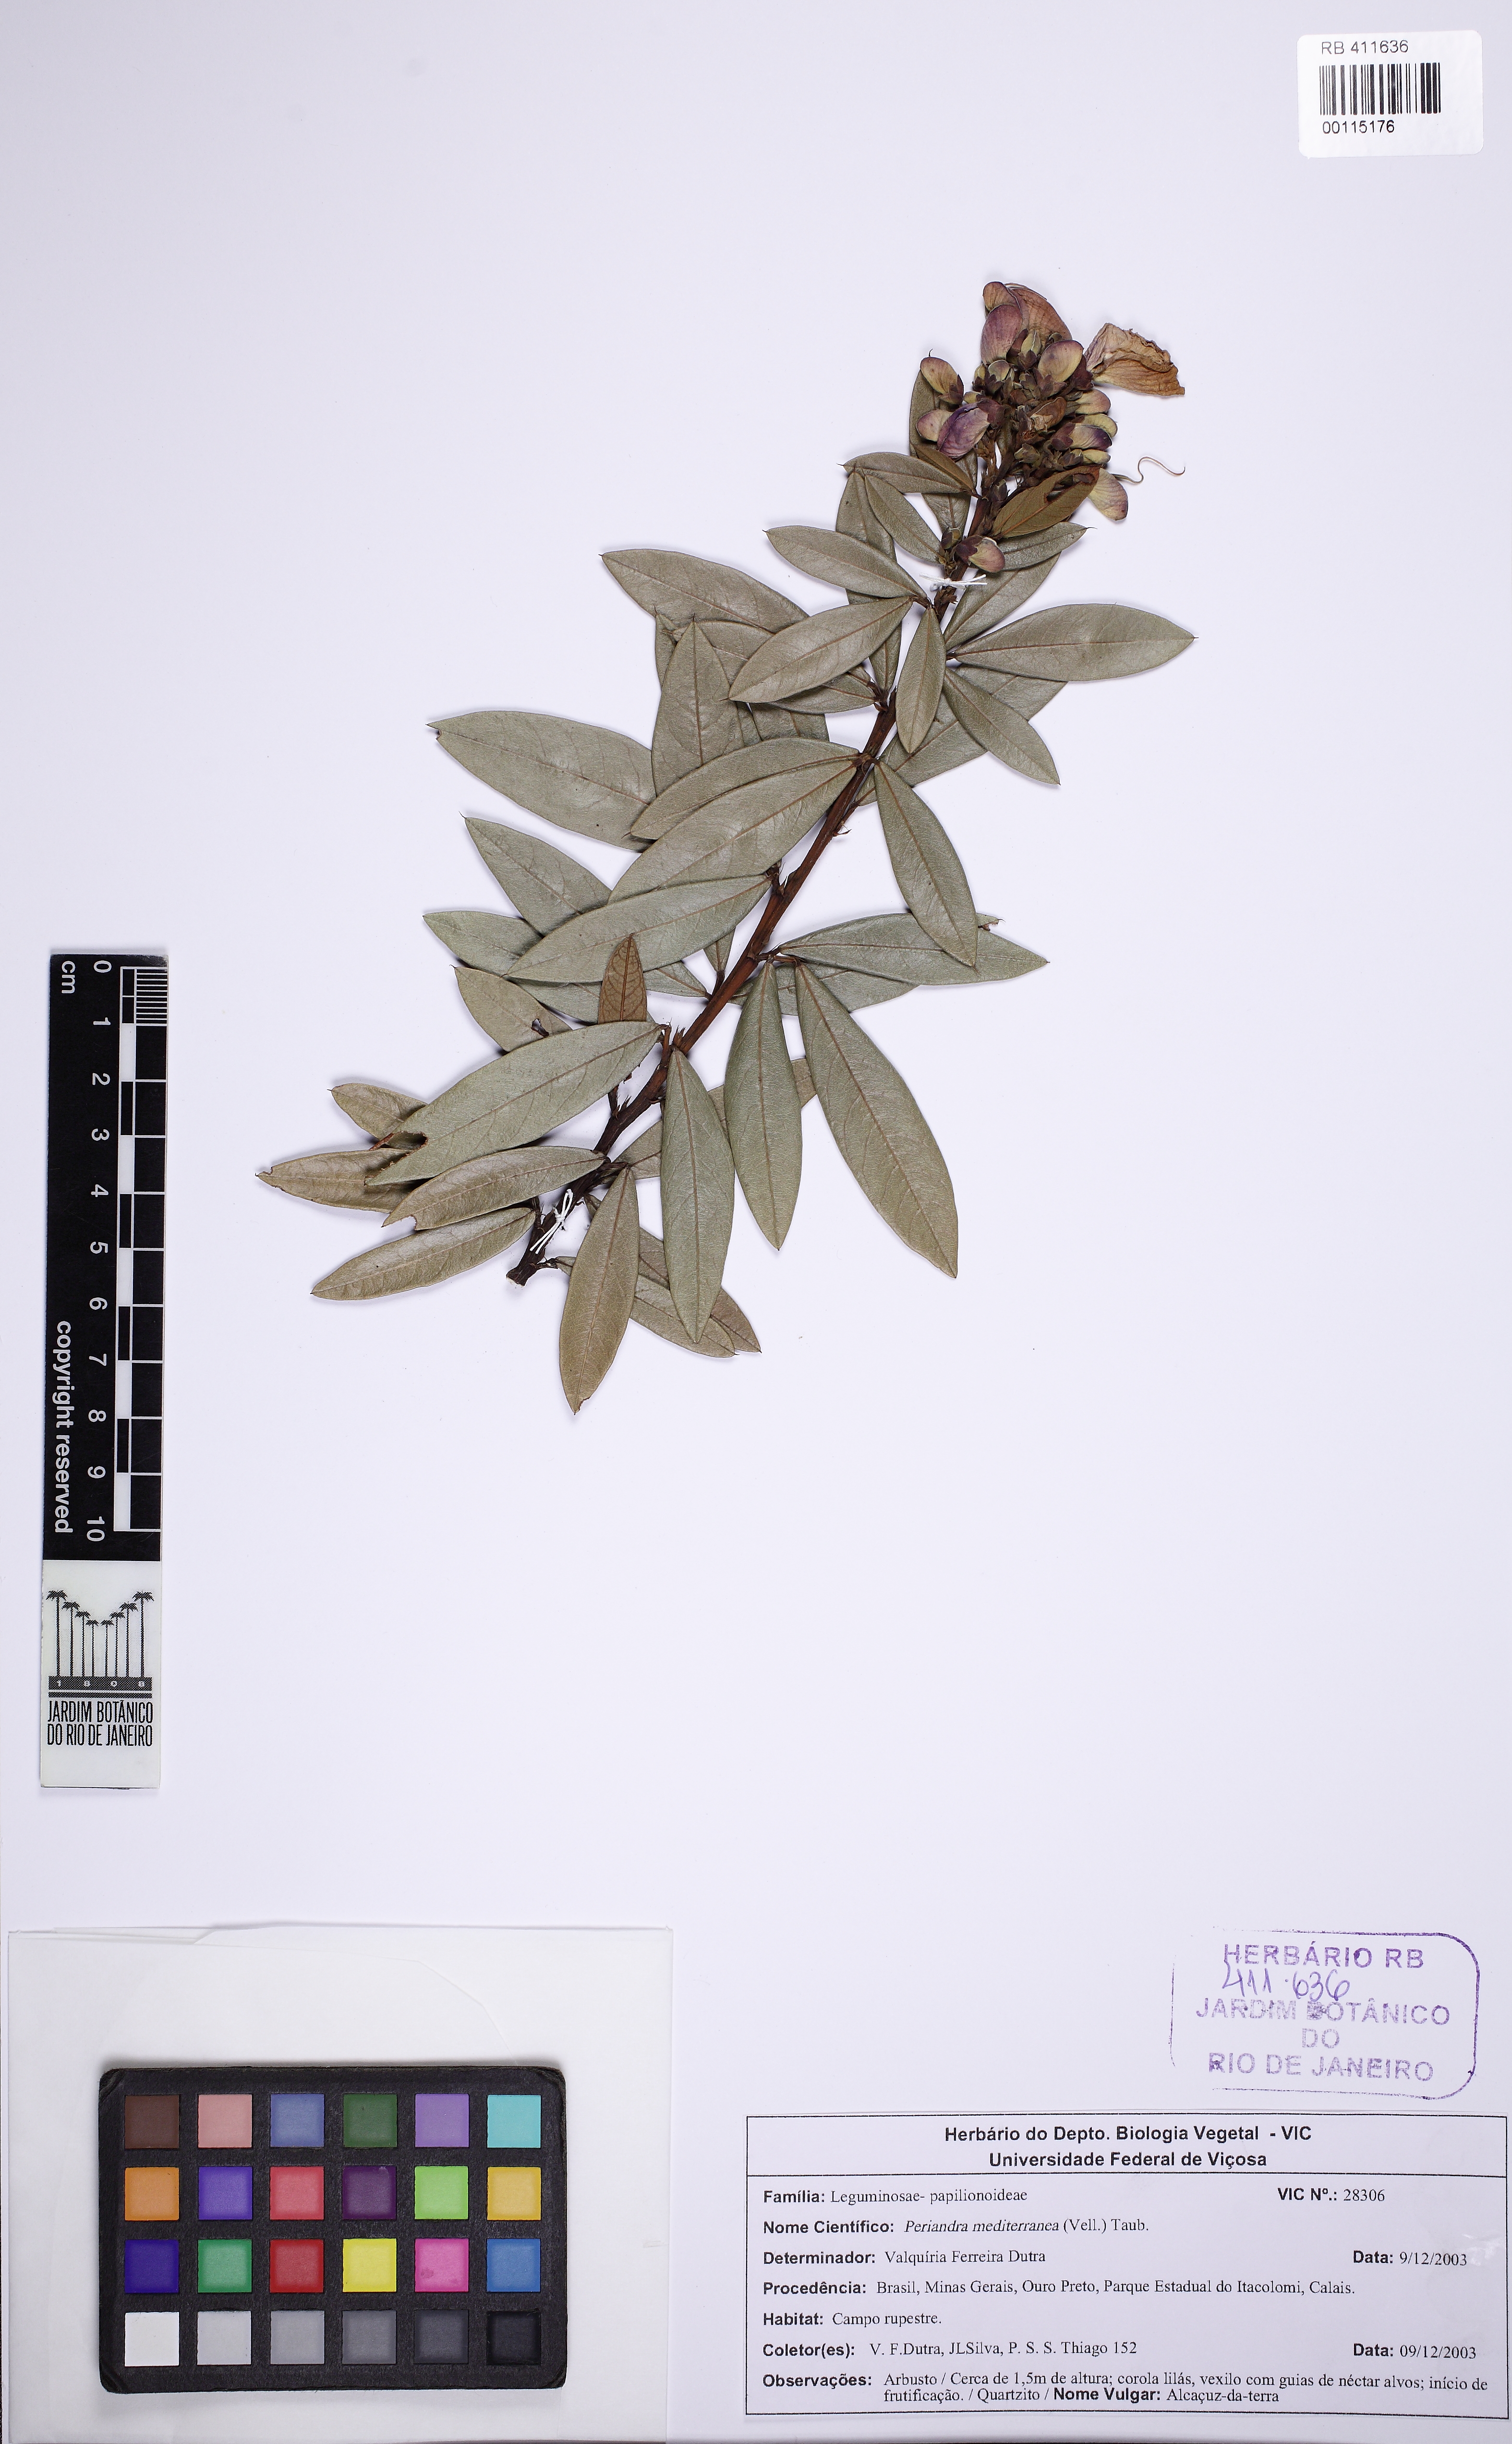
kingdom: Plantae
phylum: Tracheophyta
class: Magnoliopsida
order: Fabales
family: Fabaceae
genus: Periandra
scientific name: Periandra mediterranea
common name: Brazilian licorice
